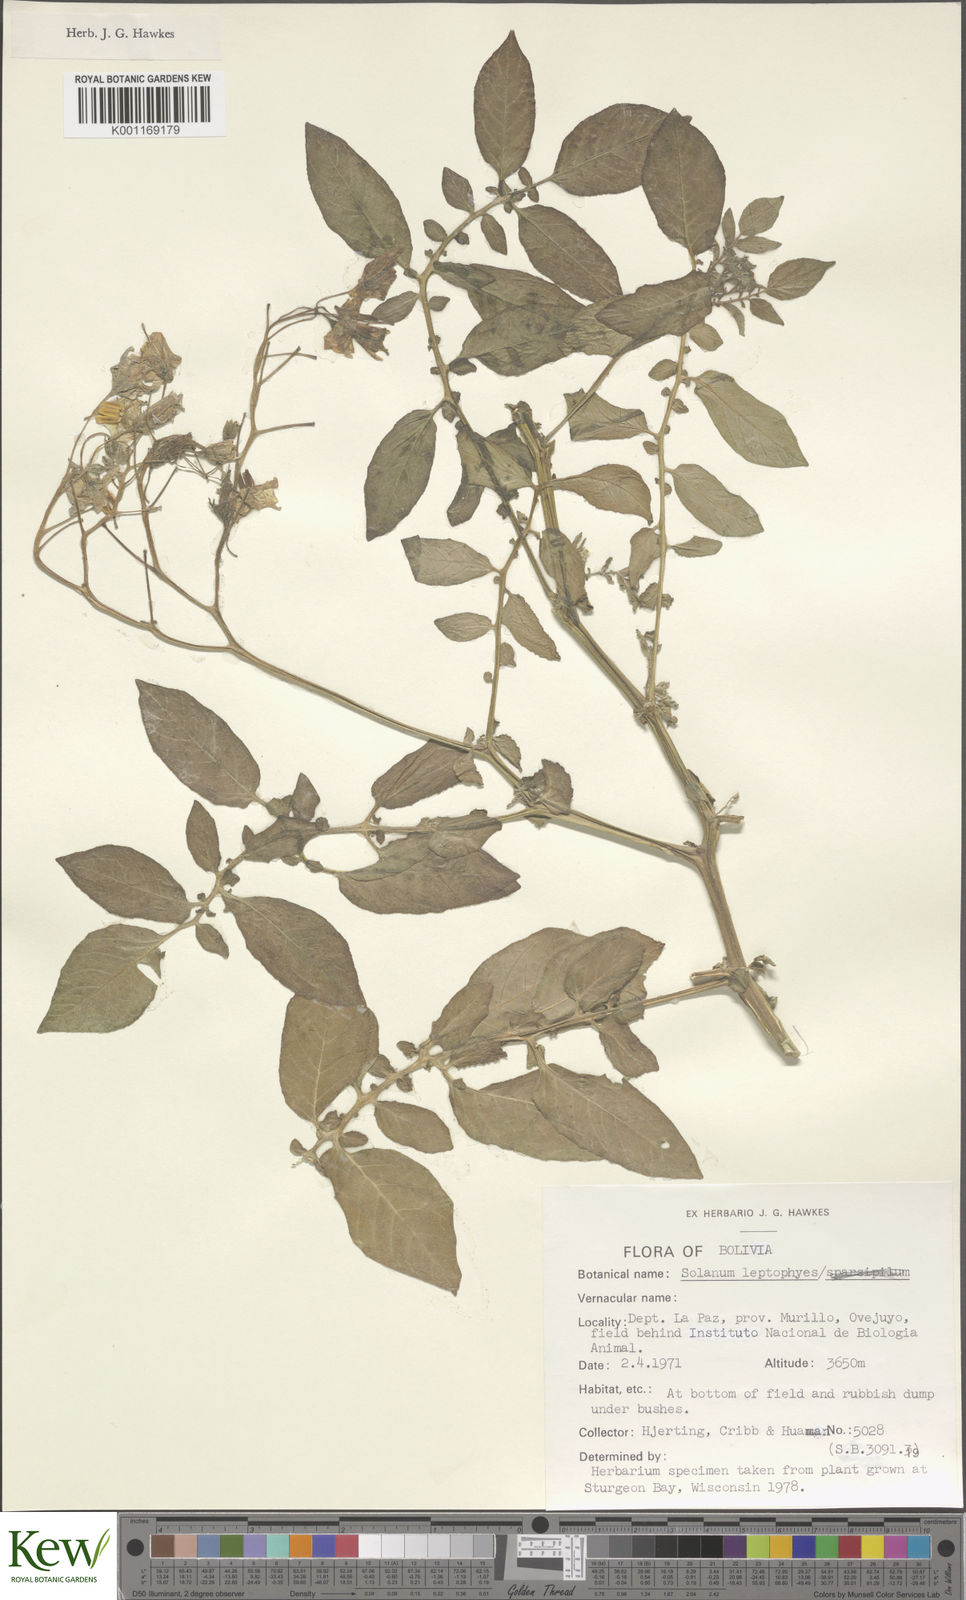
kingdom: Plantae
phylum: Tracheophyta
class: Magnoliopsida
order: Solanales
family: Solanaceae
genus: Solanum
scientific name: Solanum brevicaule
